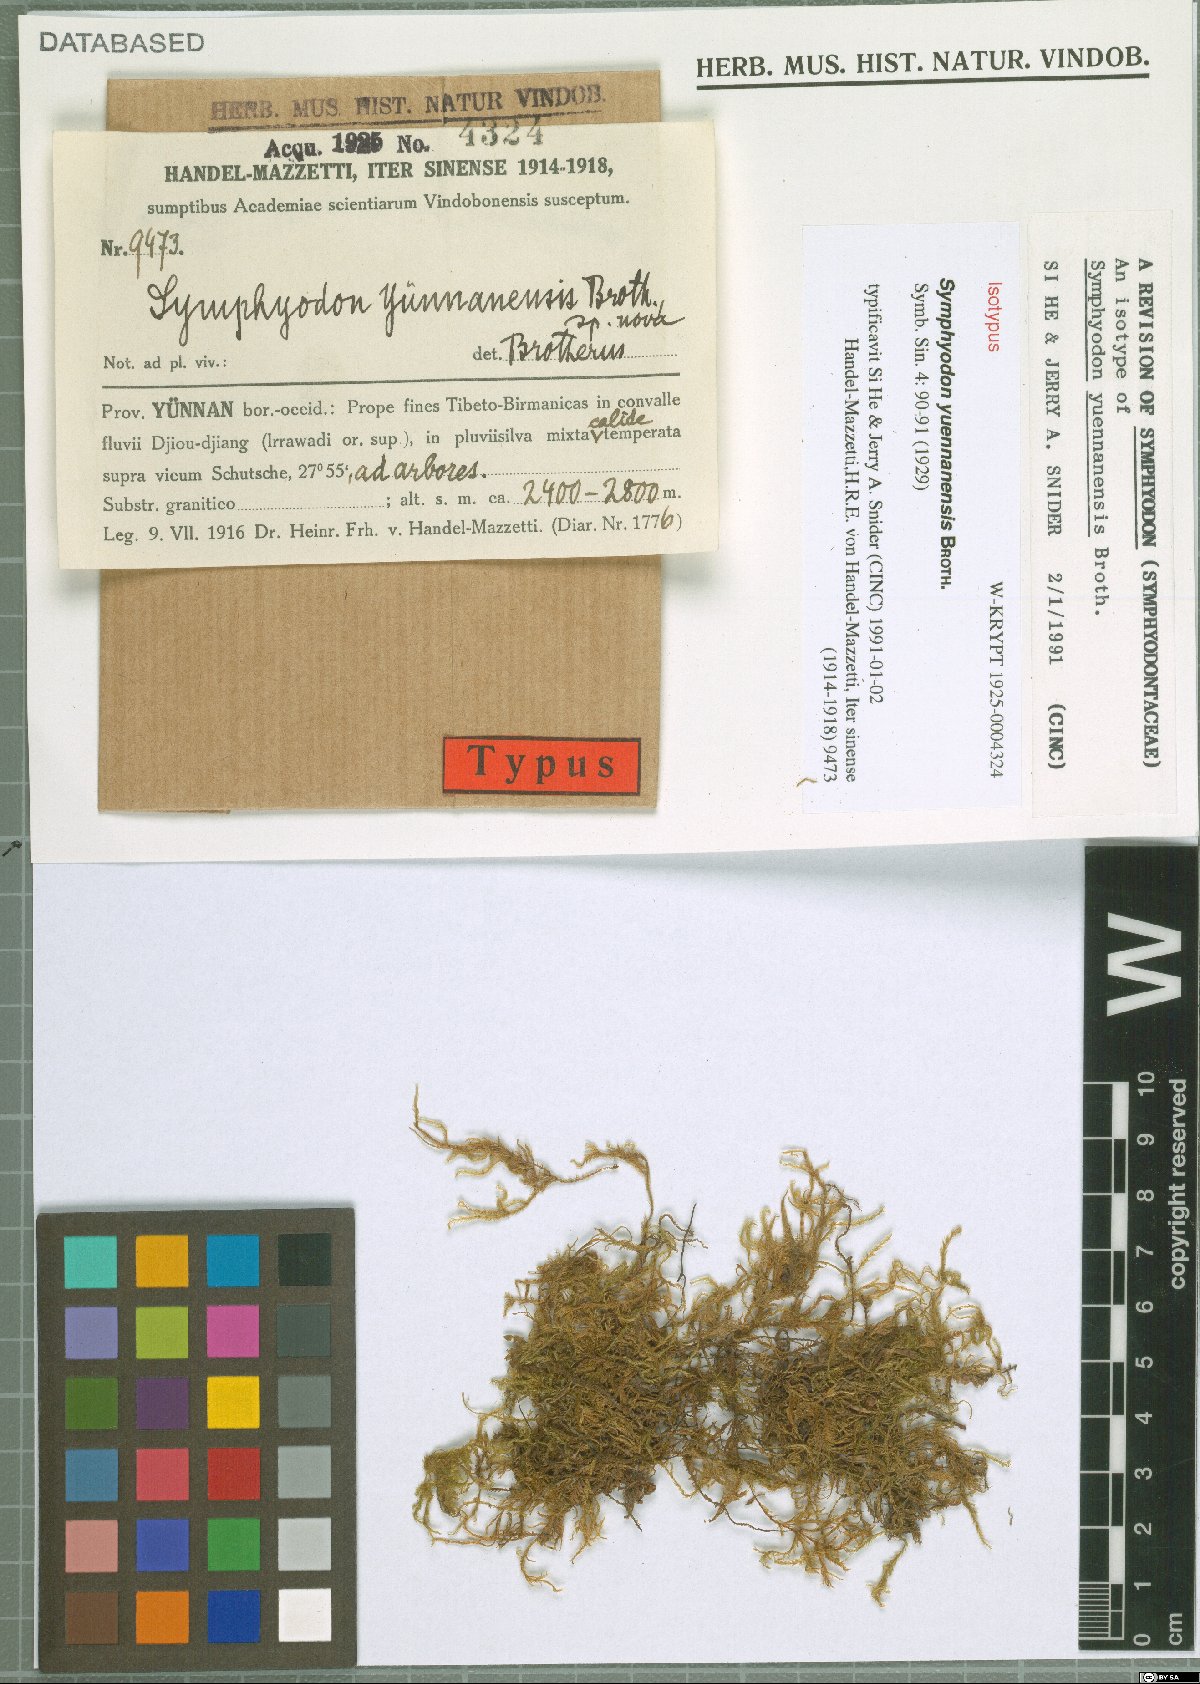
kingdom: Plantae
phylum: Bryophyta
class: Bryopsida
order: Hypnales
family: Symphyodontaceae
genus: Symphyodon
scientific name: Symphyodon yuennanensis
